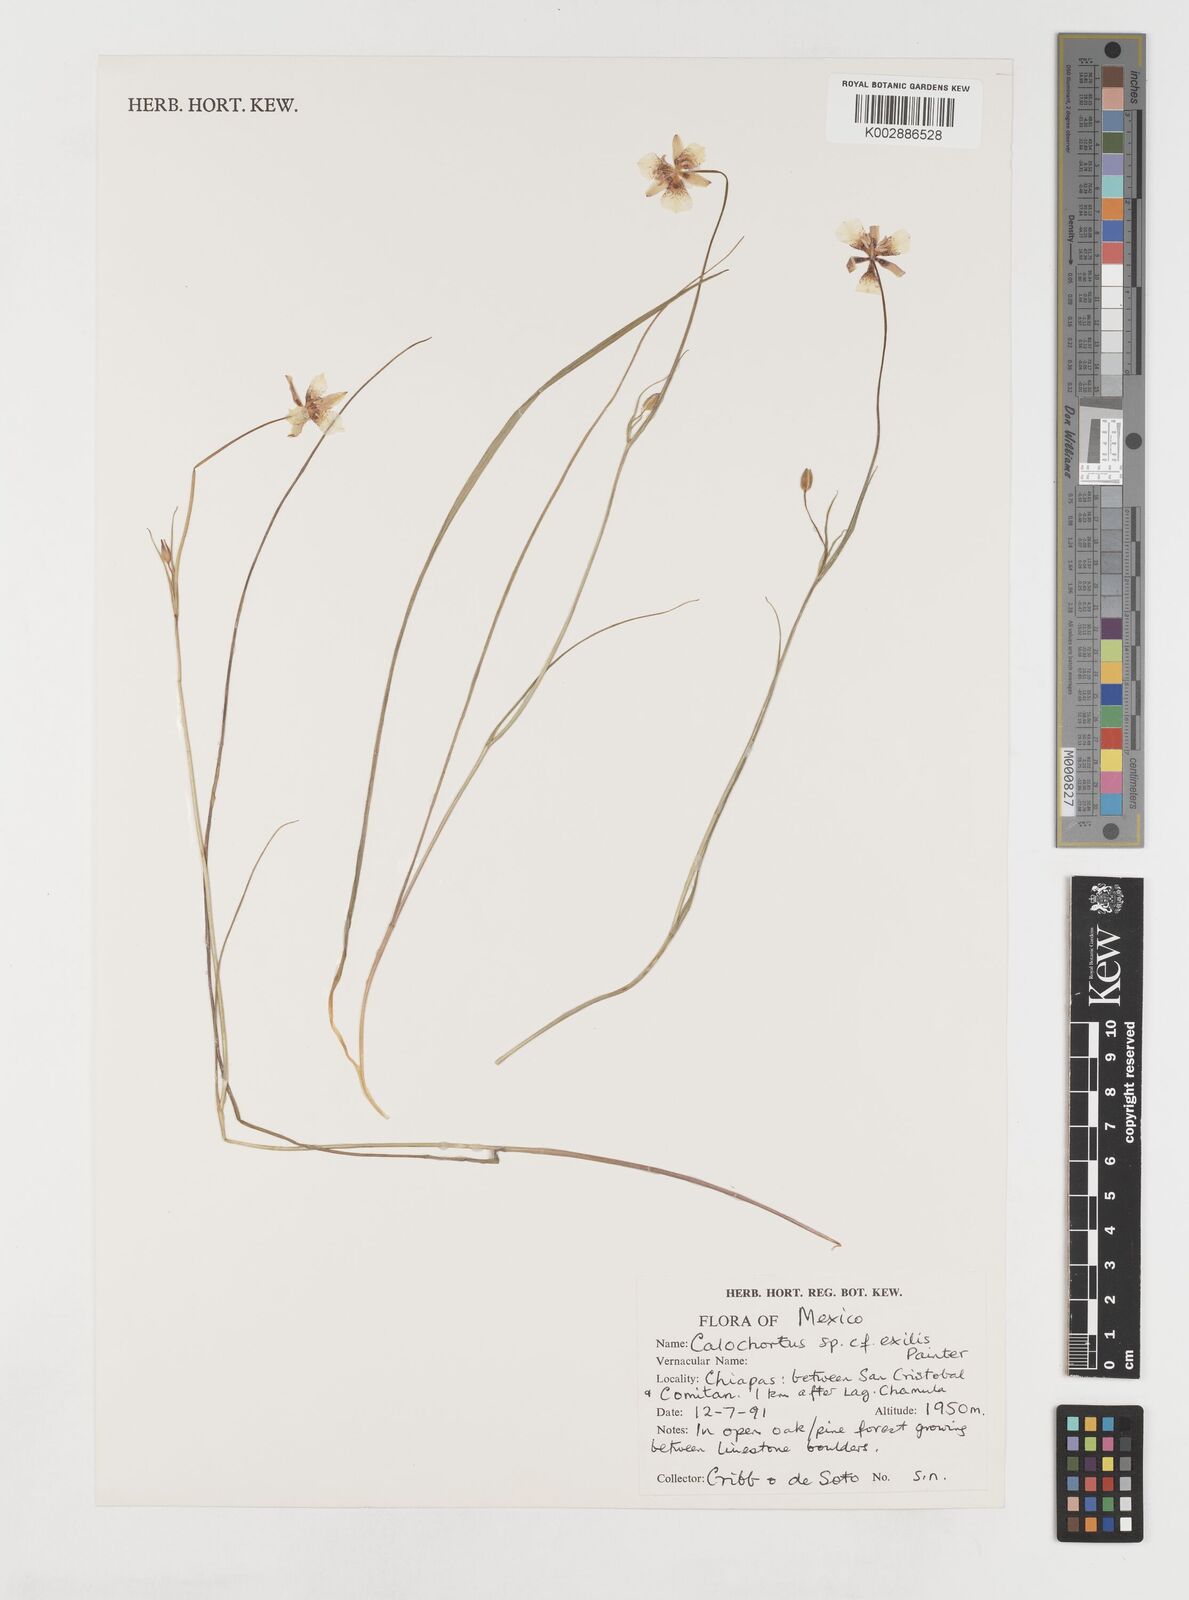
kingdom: Plantae
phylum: Tracheophyta
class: Liliopsida
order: Liliales
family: Liliaceae
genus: Calochortus
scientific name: Calochortus exilis
